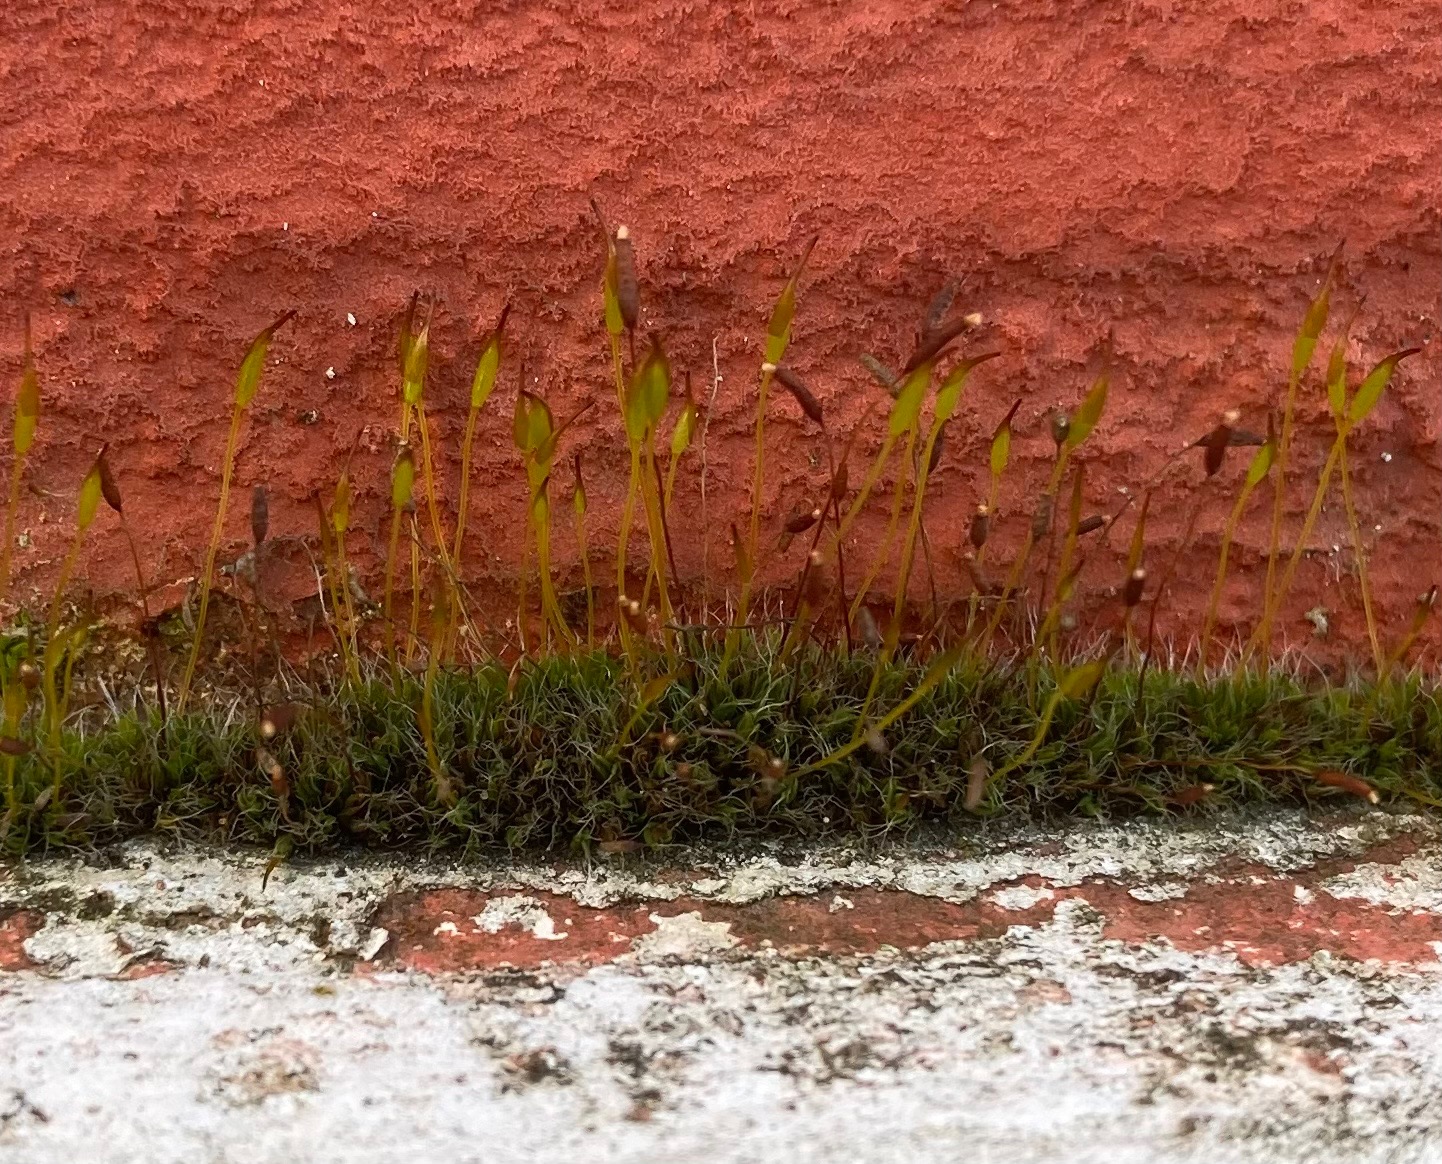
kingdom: Plantae
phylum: Bryophyta
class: Bryopsida
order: Pottiales
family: Pottiaceae
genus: Tortula
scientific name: Tortula muralis
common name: Mur-snotand
